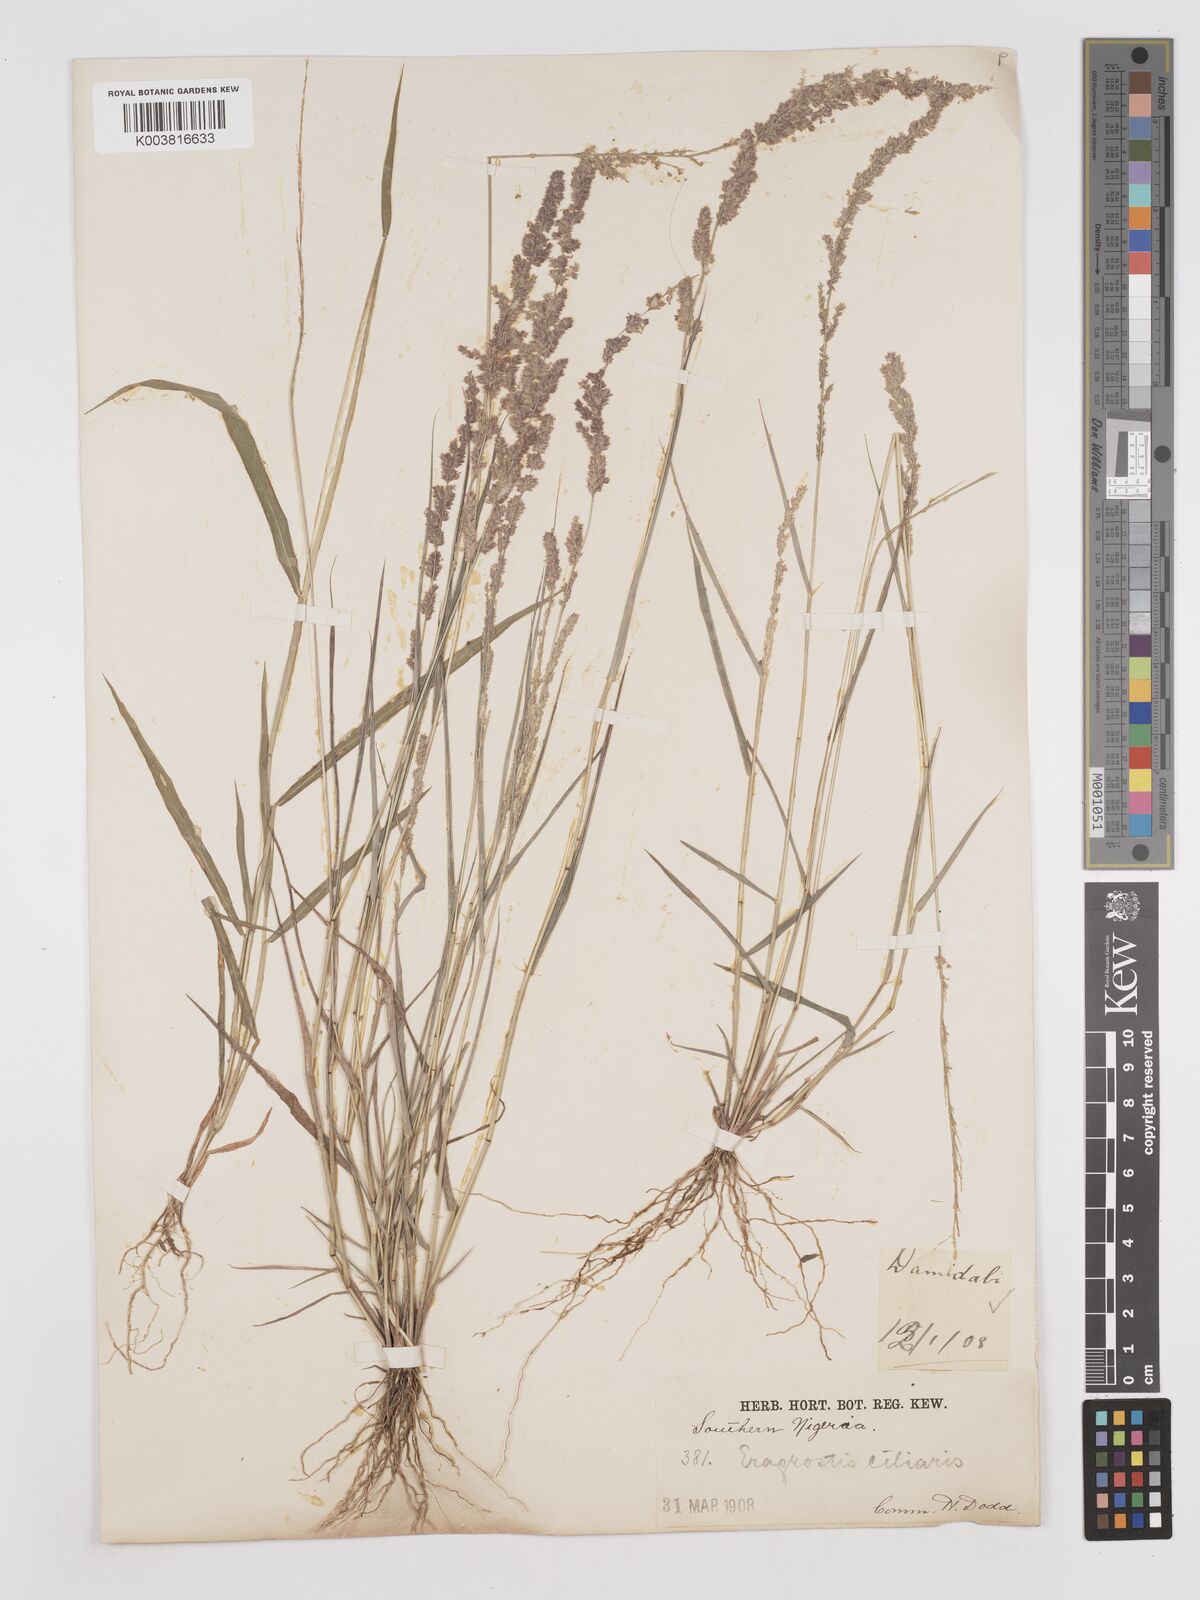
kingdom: Plantae
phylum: Tracheophyta
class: Liliopsida
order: Poales
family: Poaceae
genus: Eragrostis
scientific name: Eragrostis ciliaris
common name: Gophertail lovegrass
